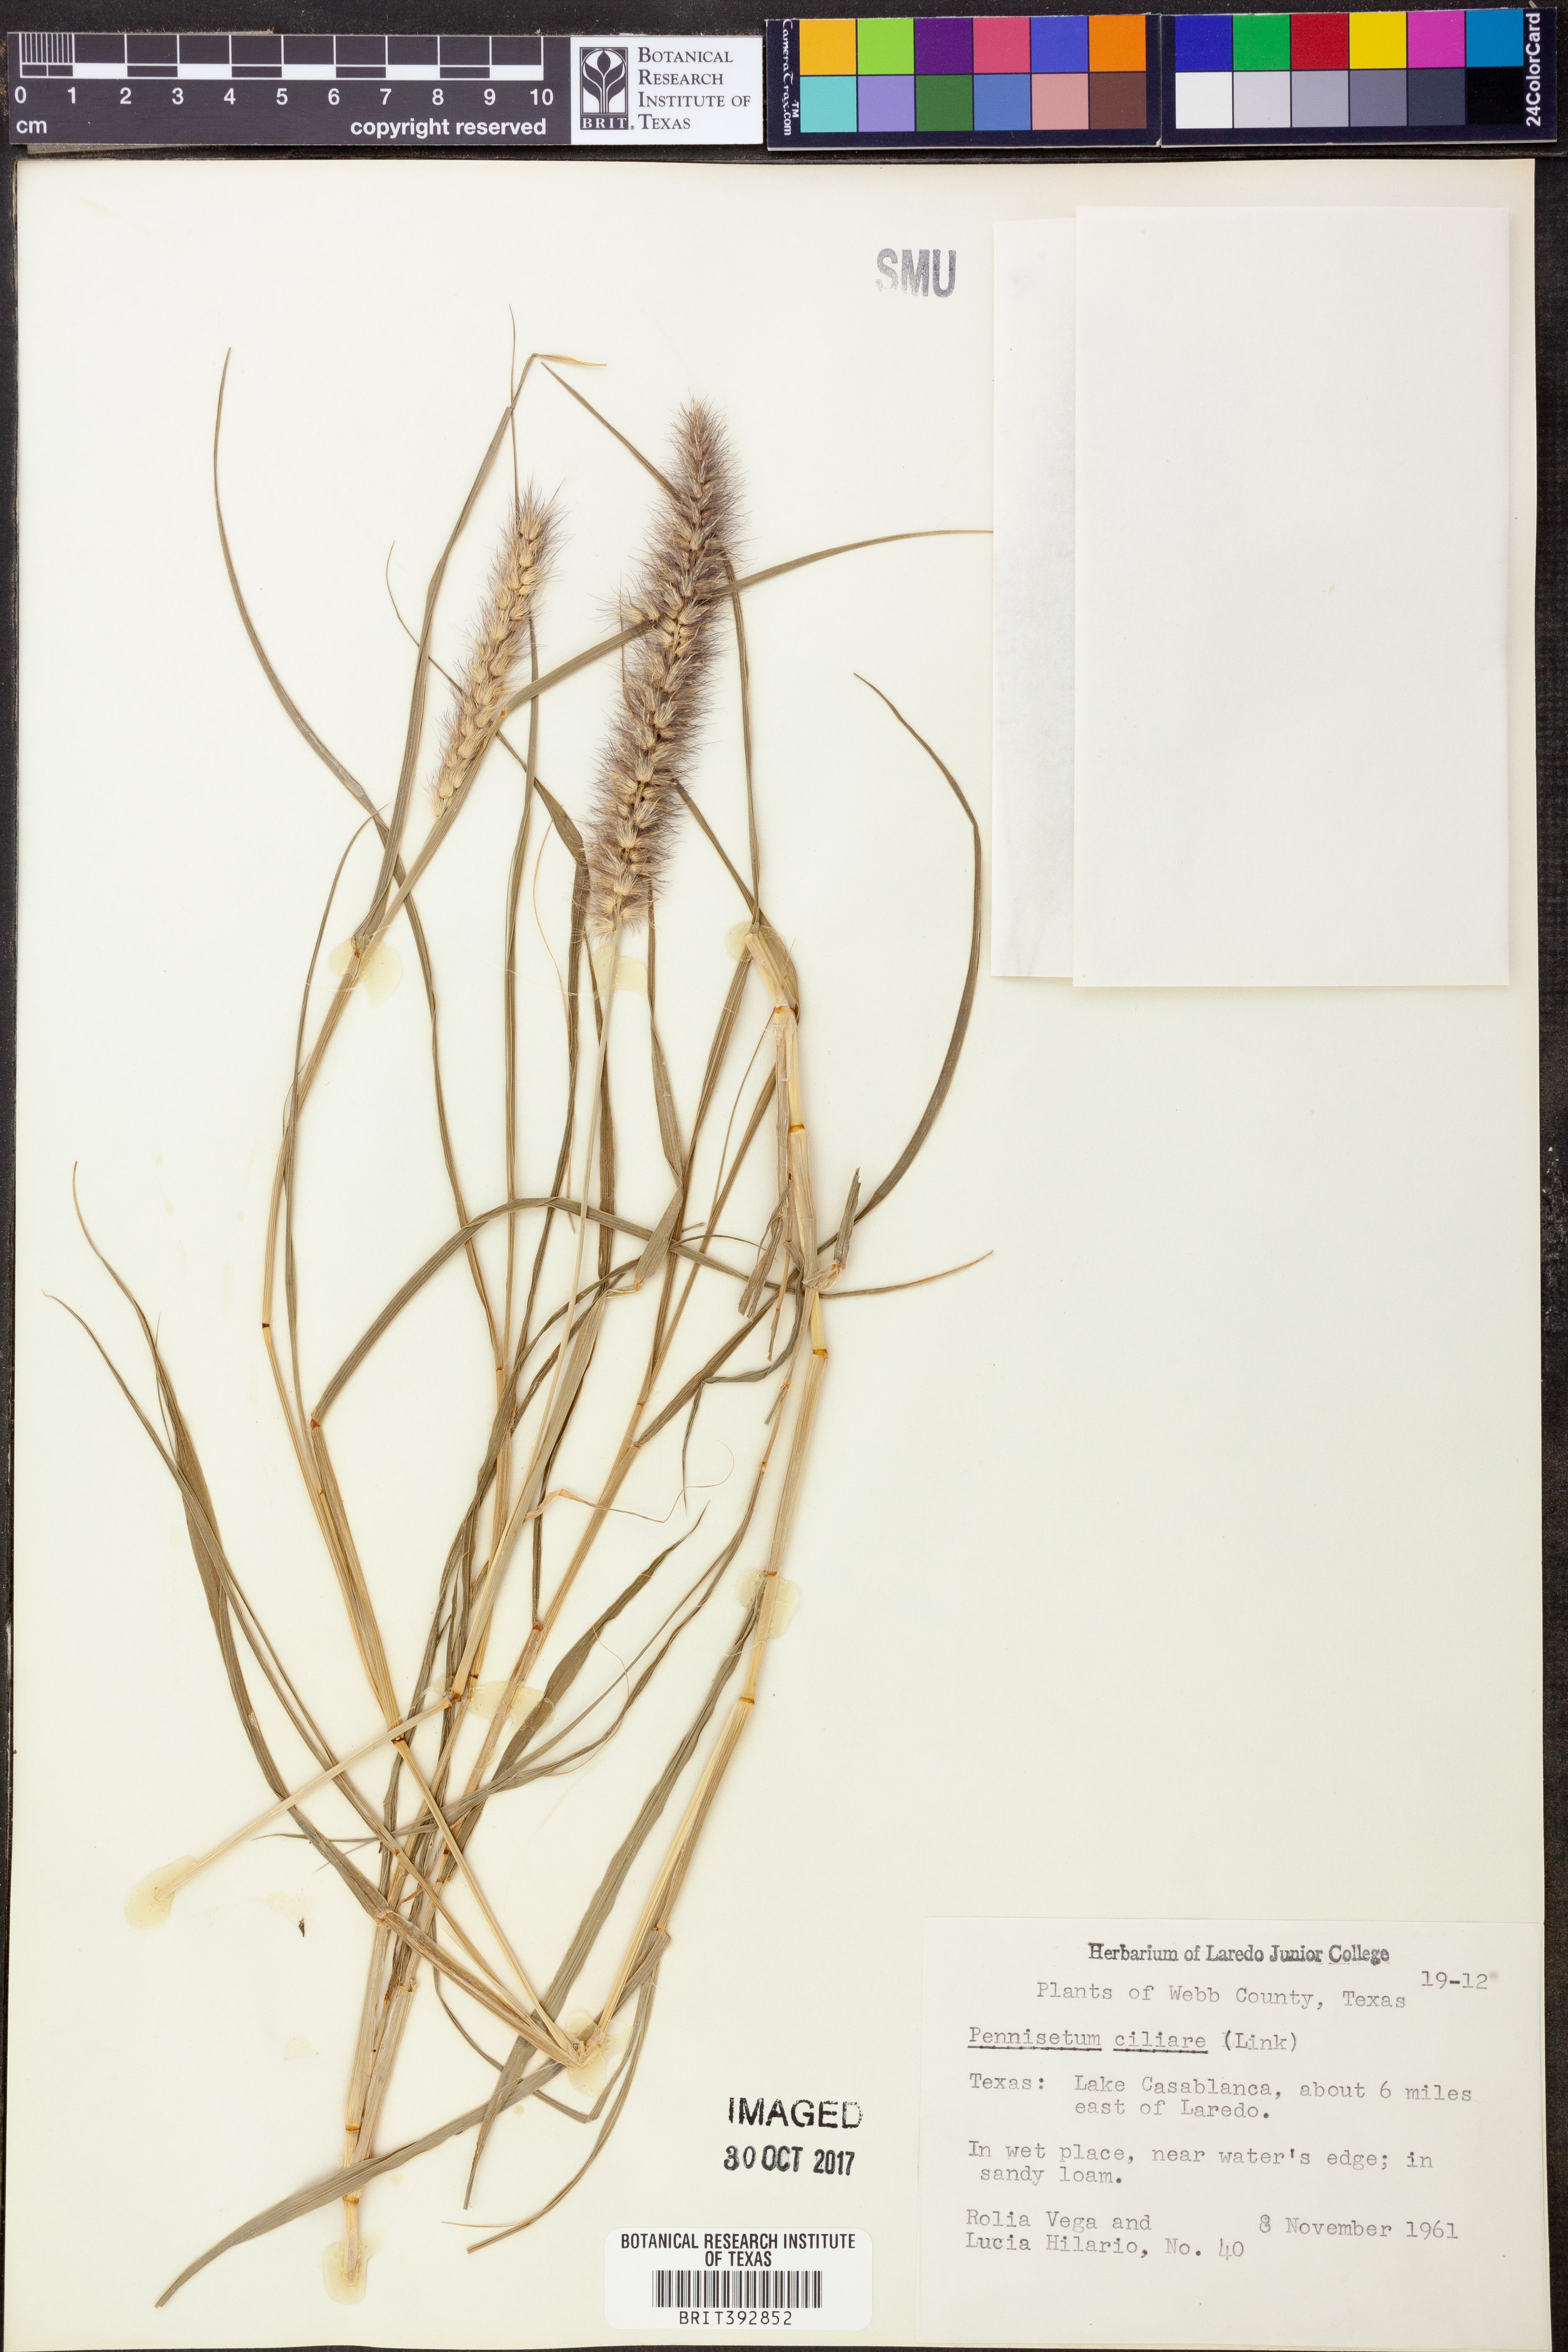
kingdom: Plantae
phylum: Tracheophyta
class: Liliopsida
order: Poales
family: Poaceae
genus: Cenchrus
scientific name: Cenchrus ciliaris
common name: Buffelgrass
